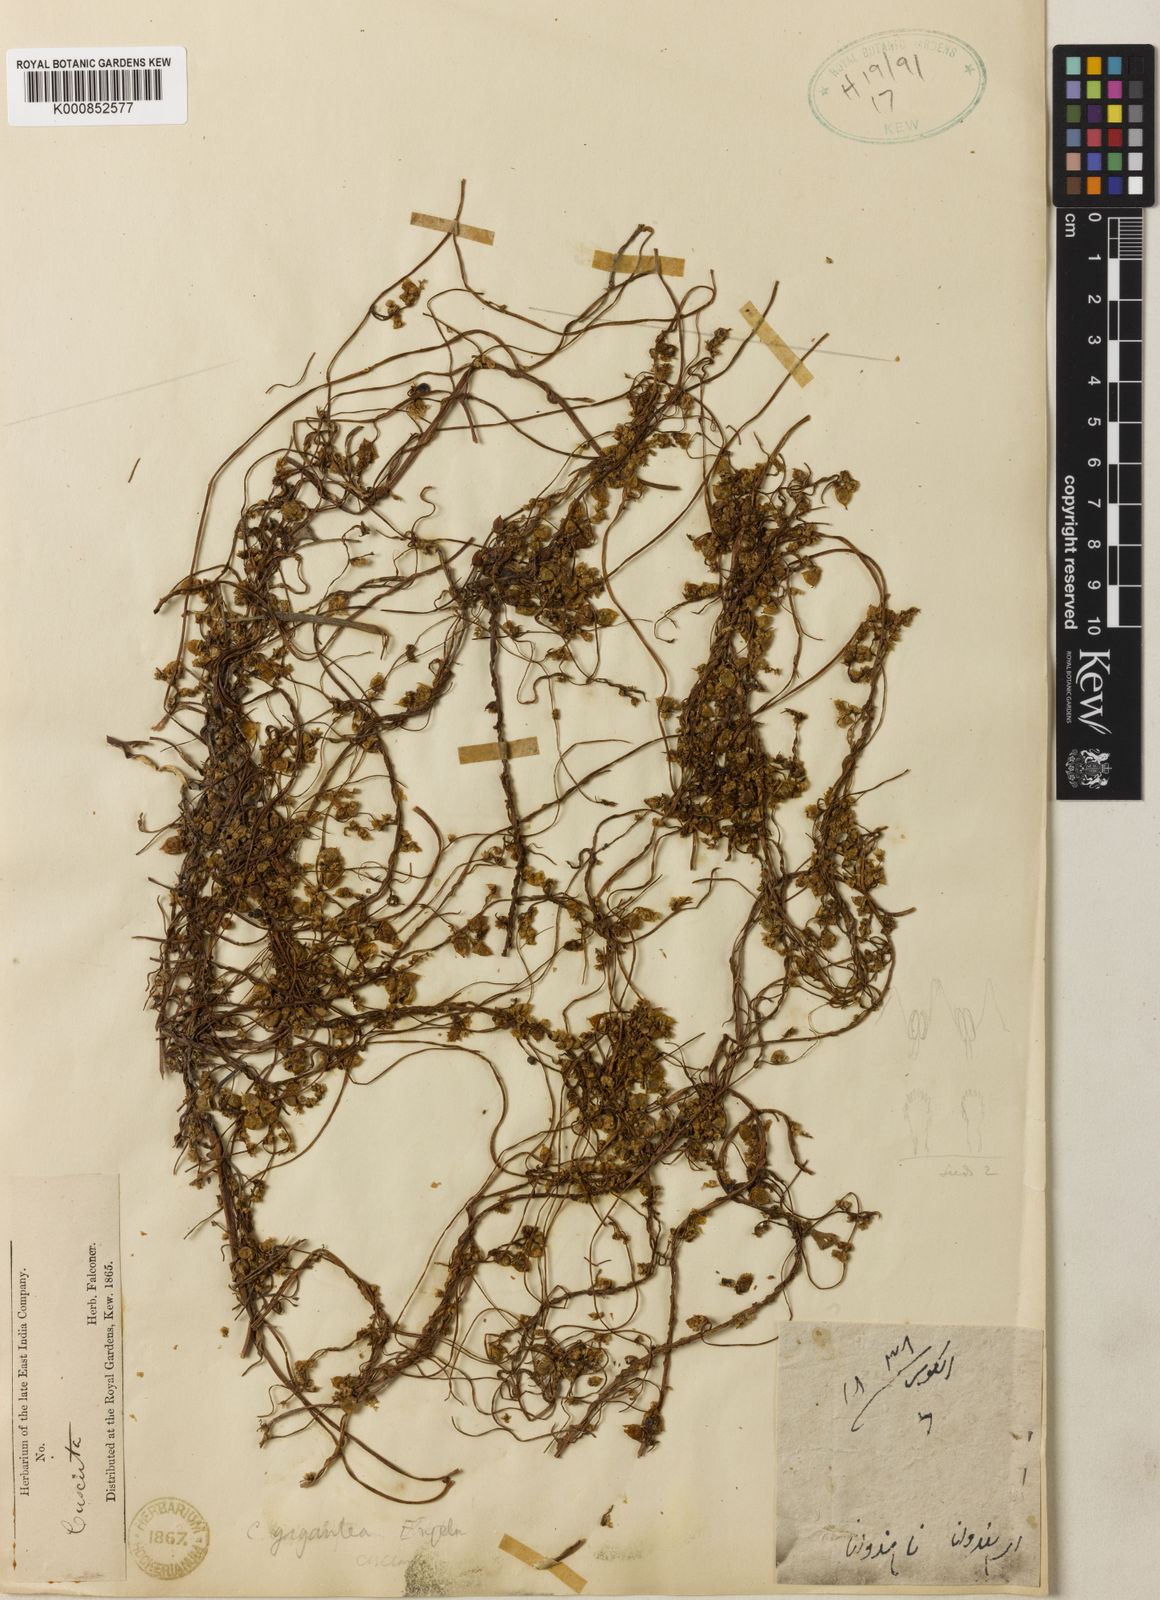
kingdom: Plantae
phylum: Tracheophyta
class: Magnoliopsida
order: Solanales
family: Convolvulaceae
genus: Cuscuta
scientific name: Cuscuta
